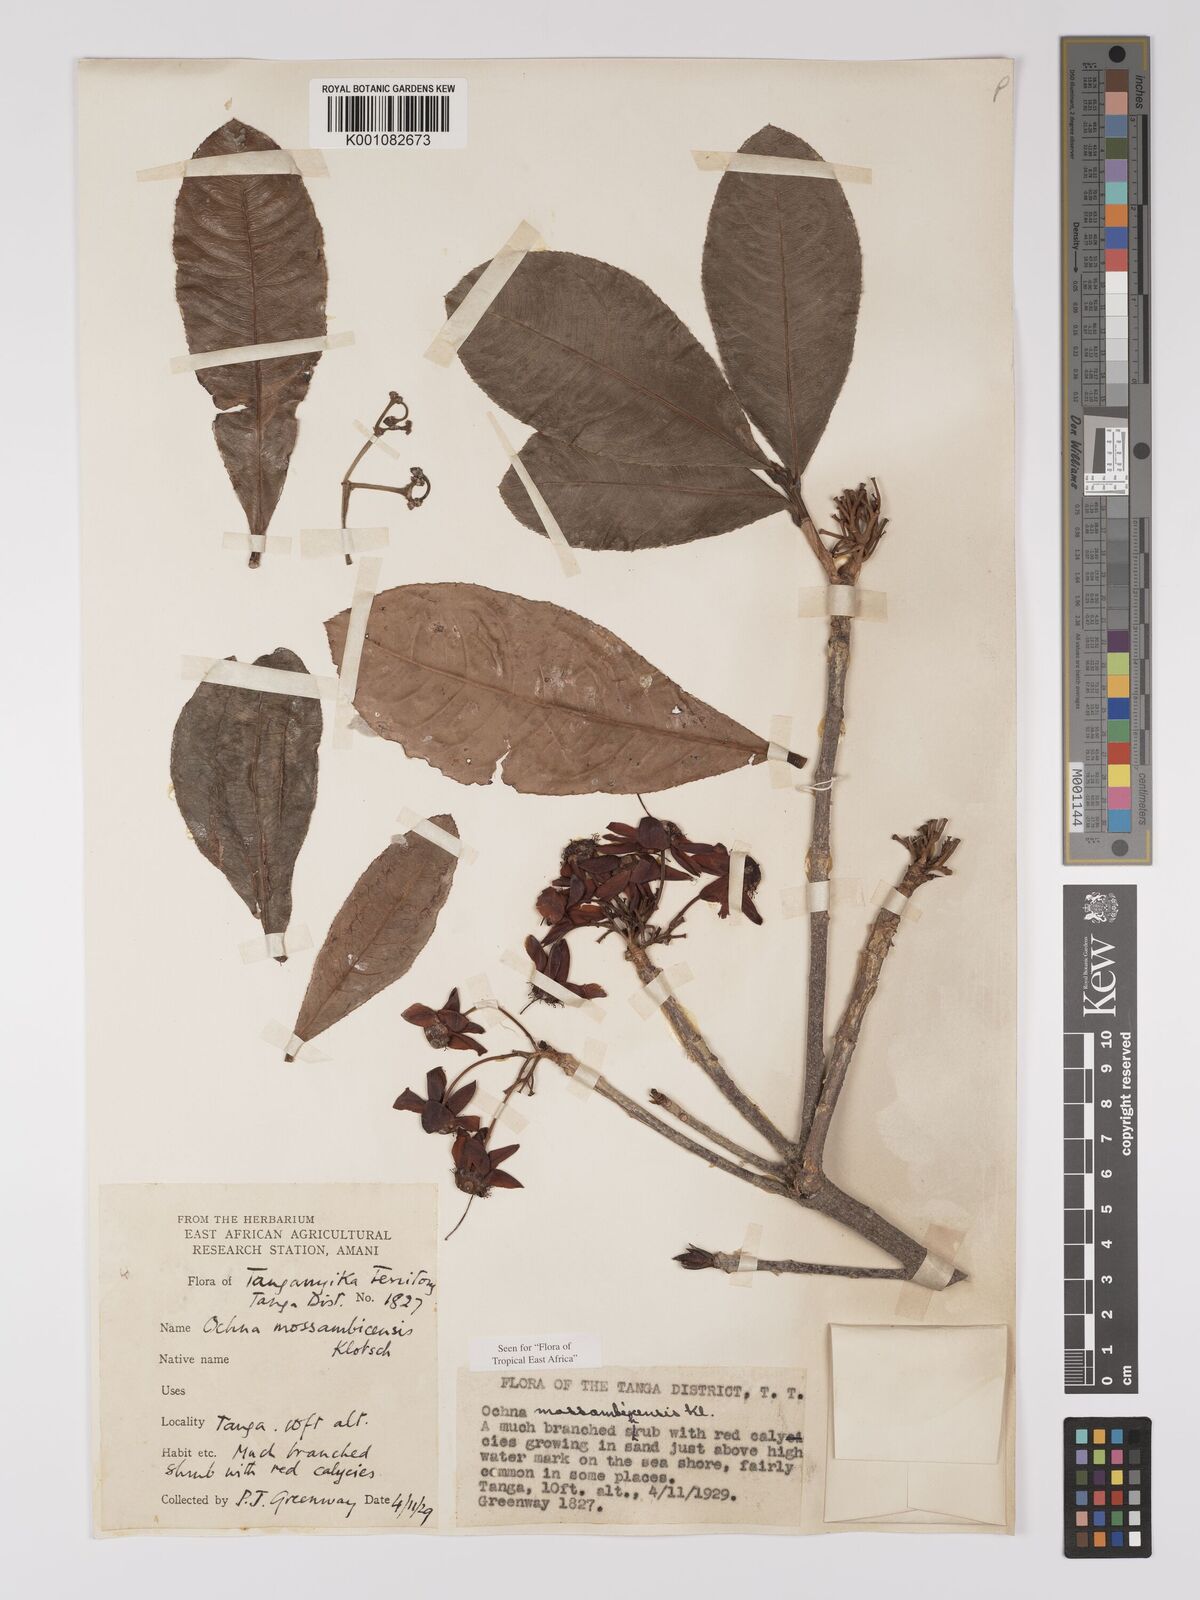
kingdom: Plantae
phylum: Tracheophyta
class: Magnoliopsida
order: Malpighiales
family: Ochnaceae
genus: Ochna
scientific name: Ochna atropurpurea
